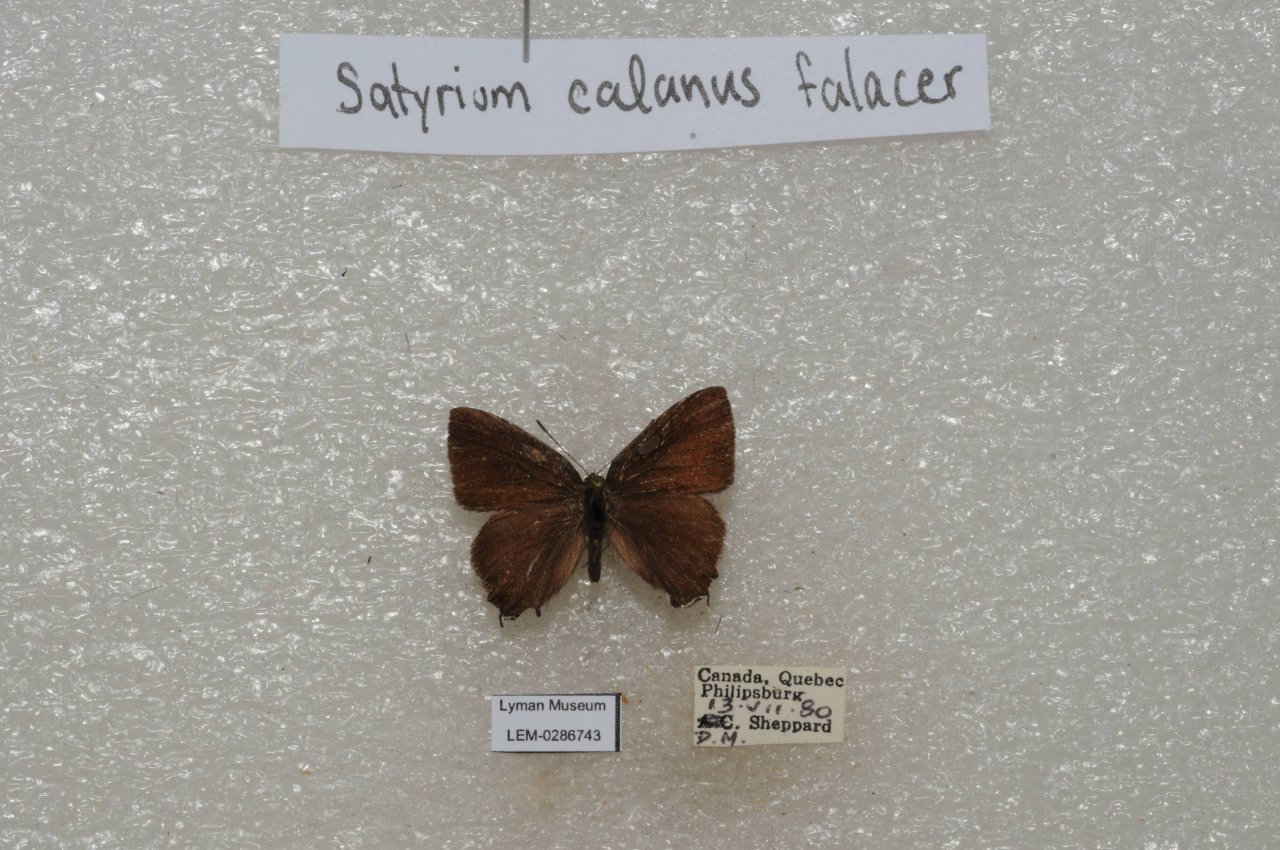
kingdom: Animalia
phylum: Arthropoda
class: Insecta
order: Lepidoptera
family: Lycaenidae
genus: Satyrium
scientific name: Satyrium calanus
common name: Banded Hairstreak
